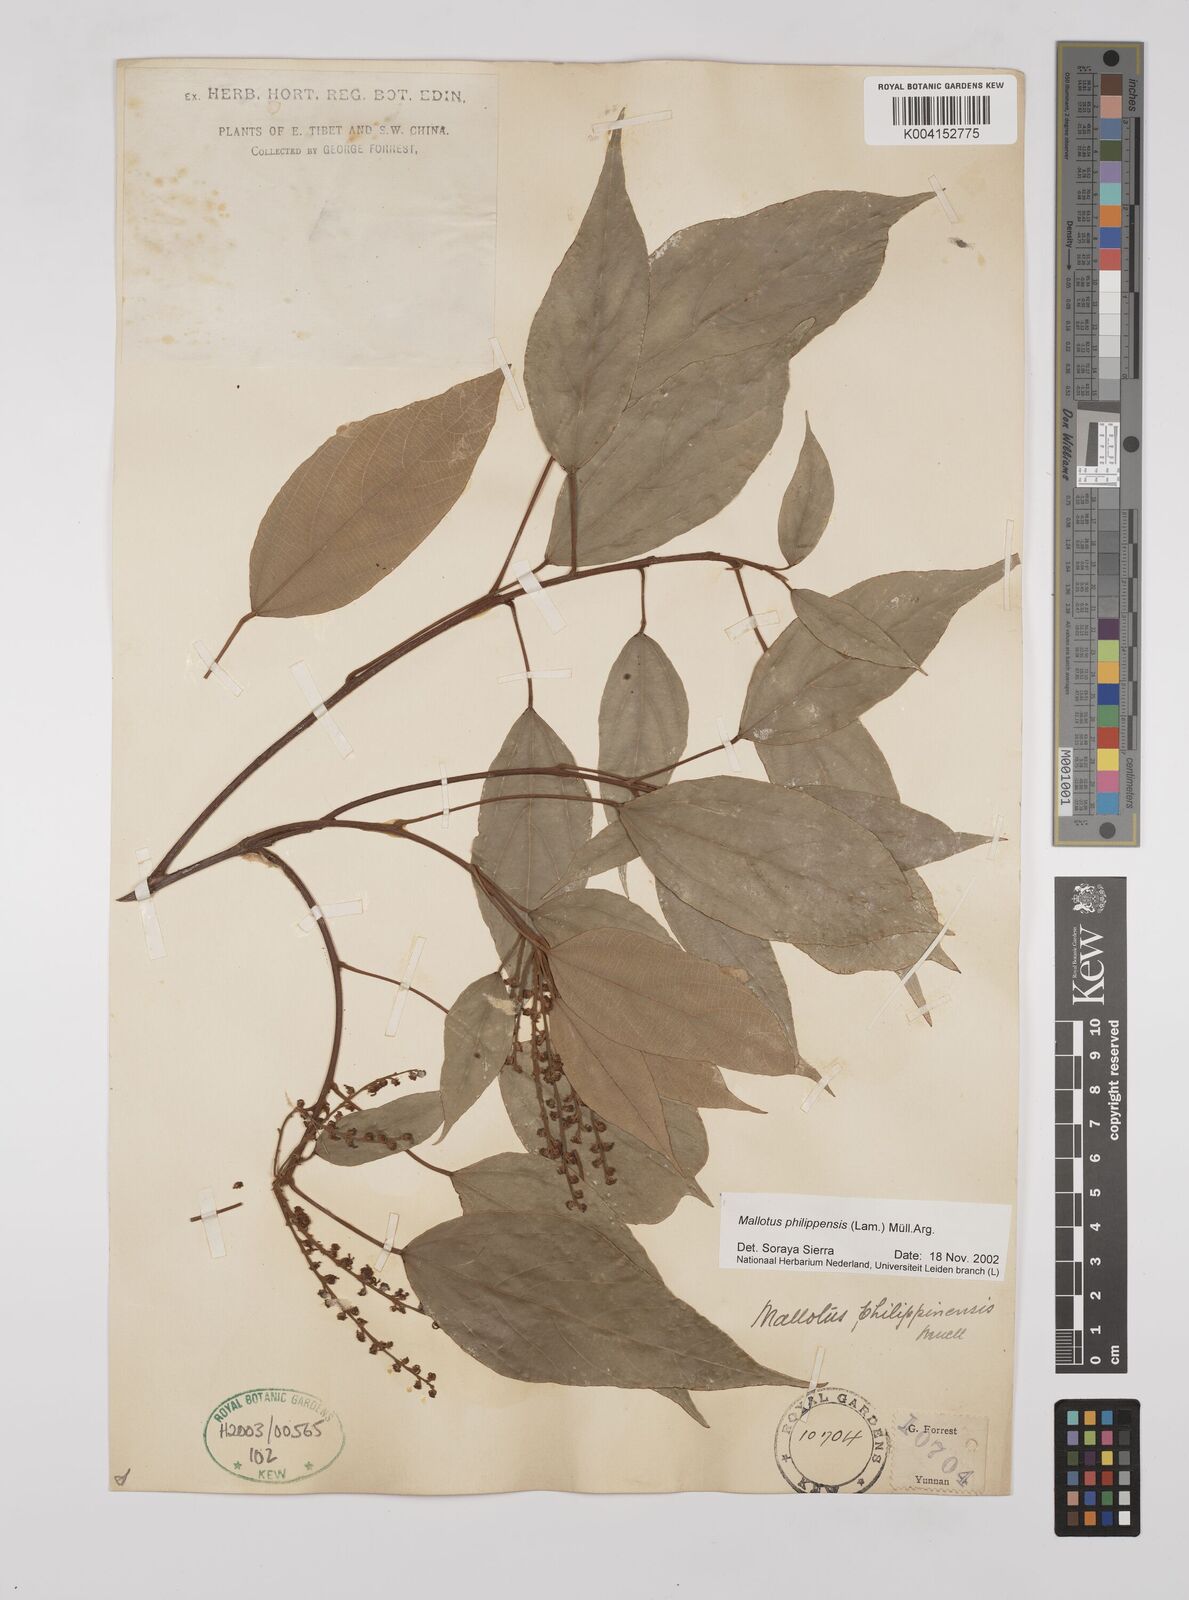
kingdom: Plantae
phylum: Tracheophyta
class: Magnoliopsida
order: Malpighiales
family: Euphorbiaceae
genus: Mallotus
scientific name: Mallotus philippensis
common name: Kamala tree
